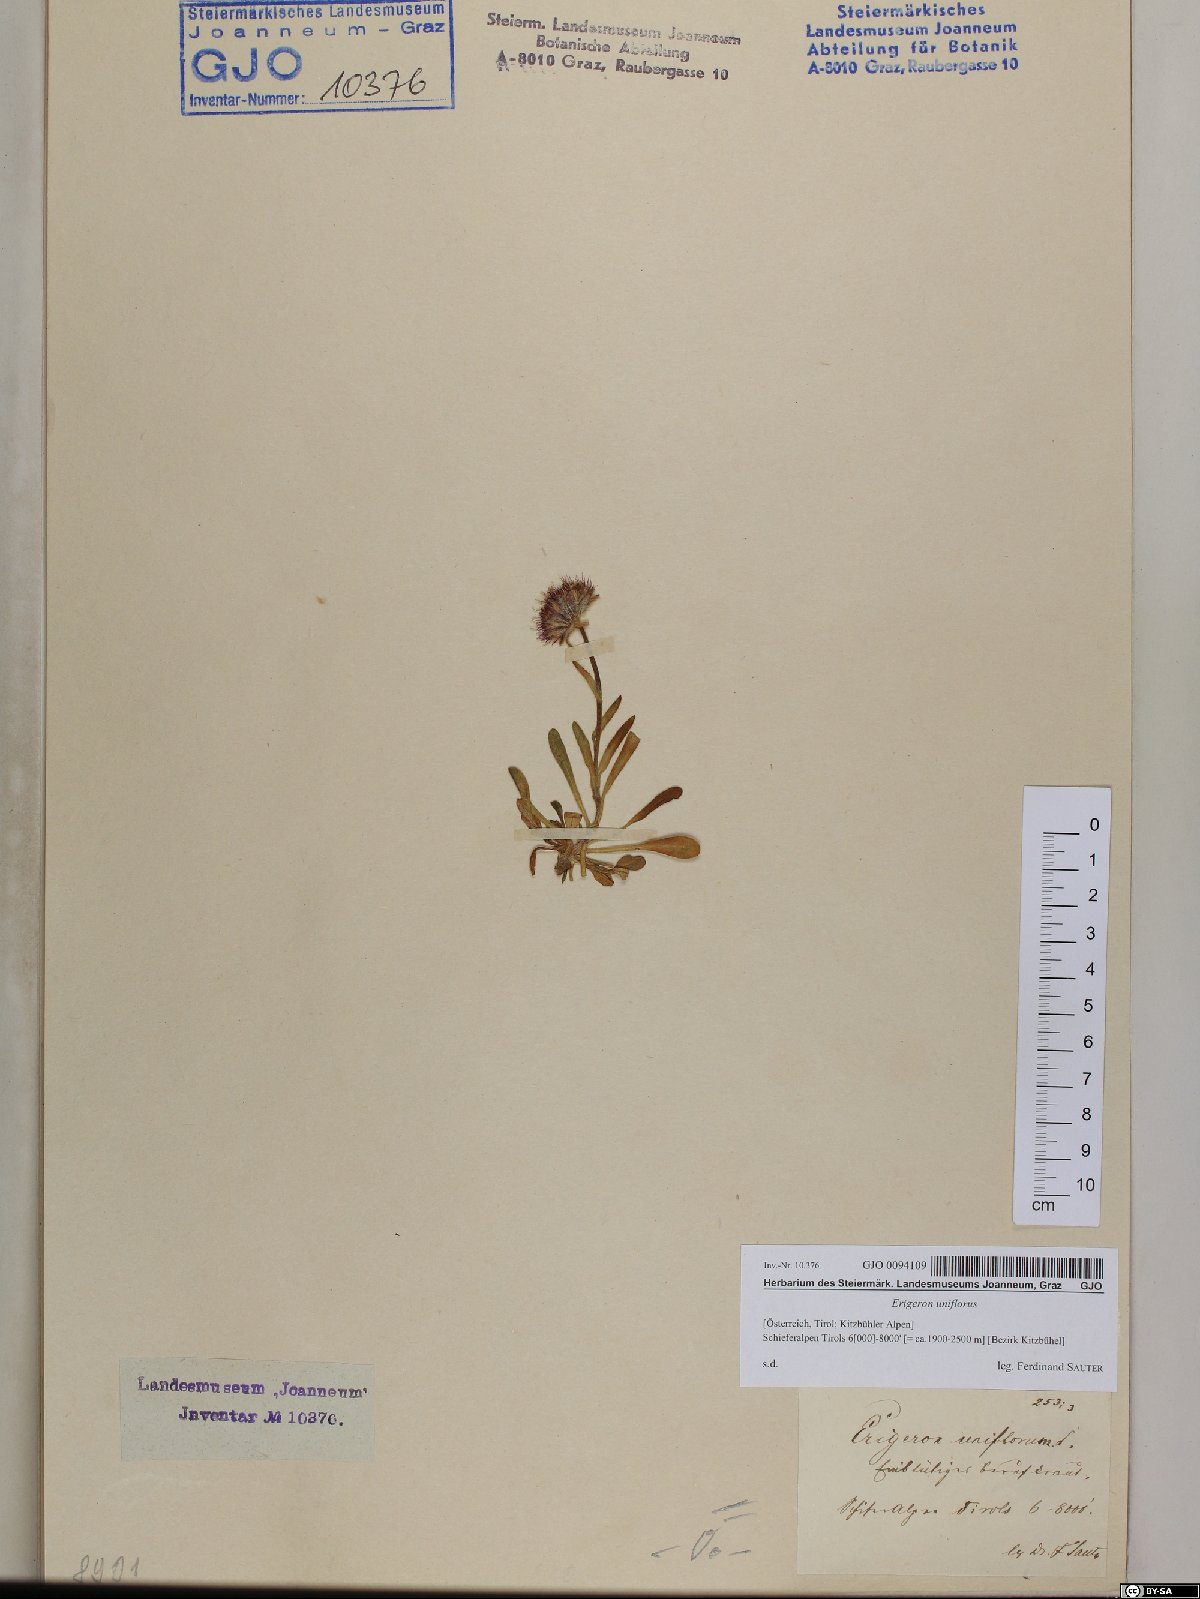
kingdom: Plantae
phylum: Tracheophyta
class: Magnoliopsida
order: Asterales
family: Asteraceae
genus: Erigeron
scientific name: Erigeron uniflorus
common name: Northern daisy
